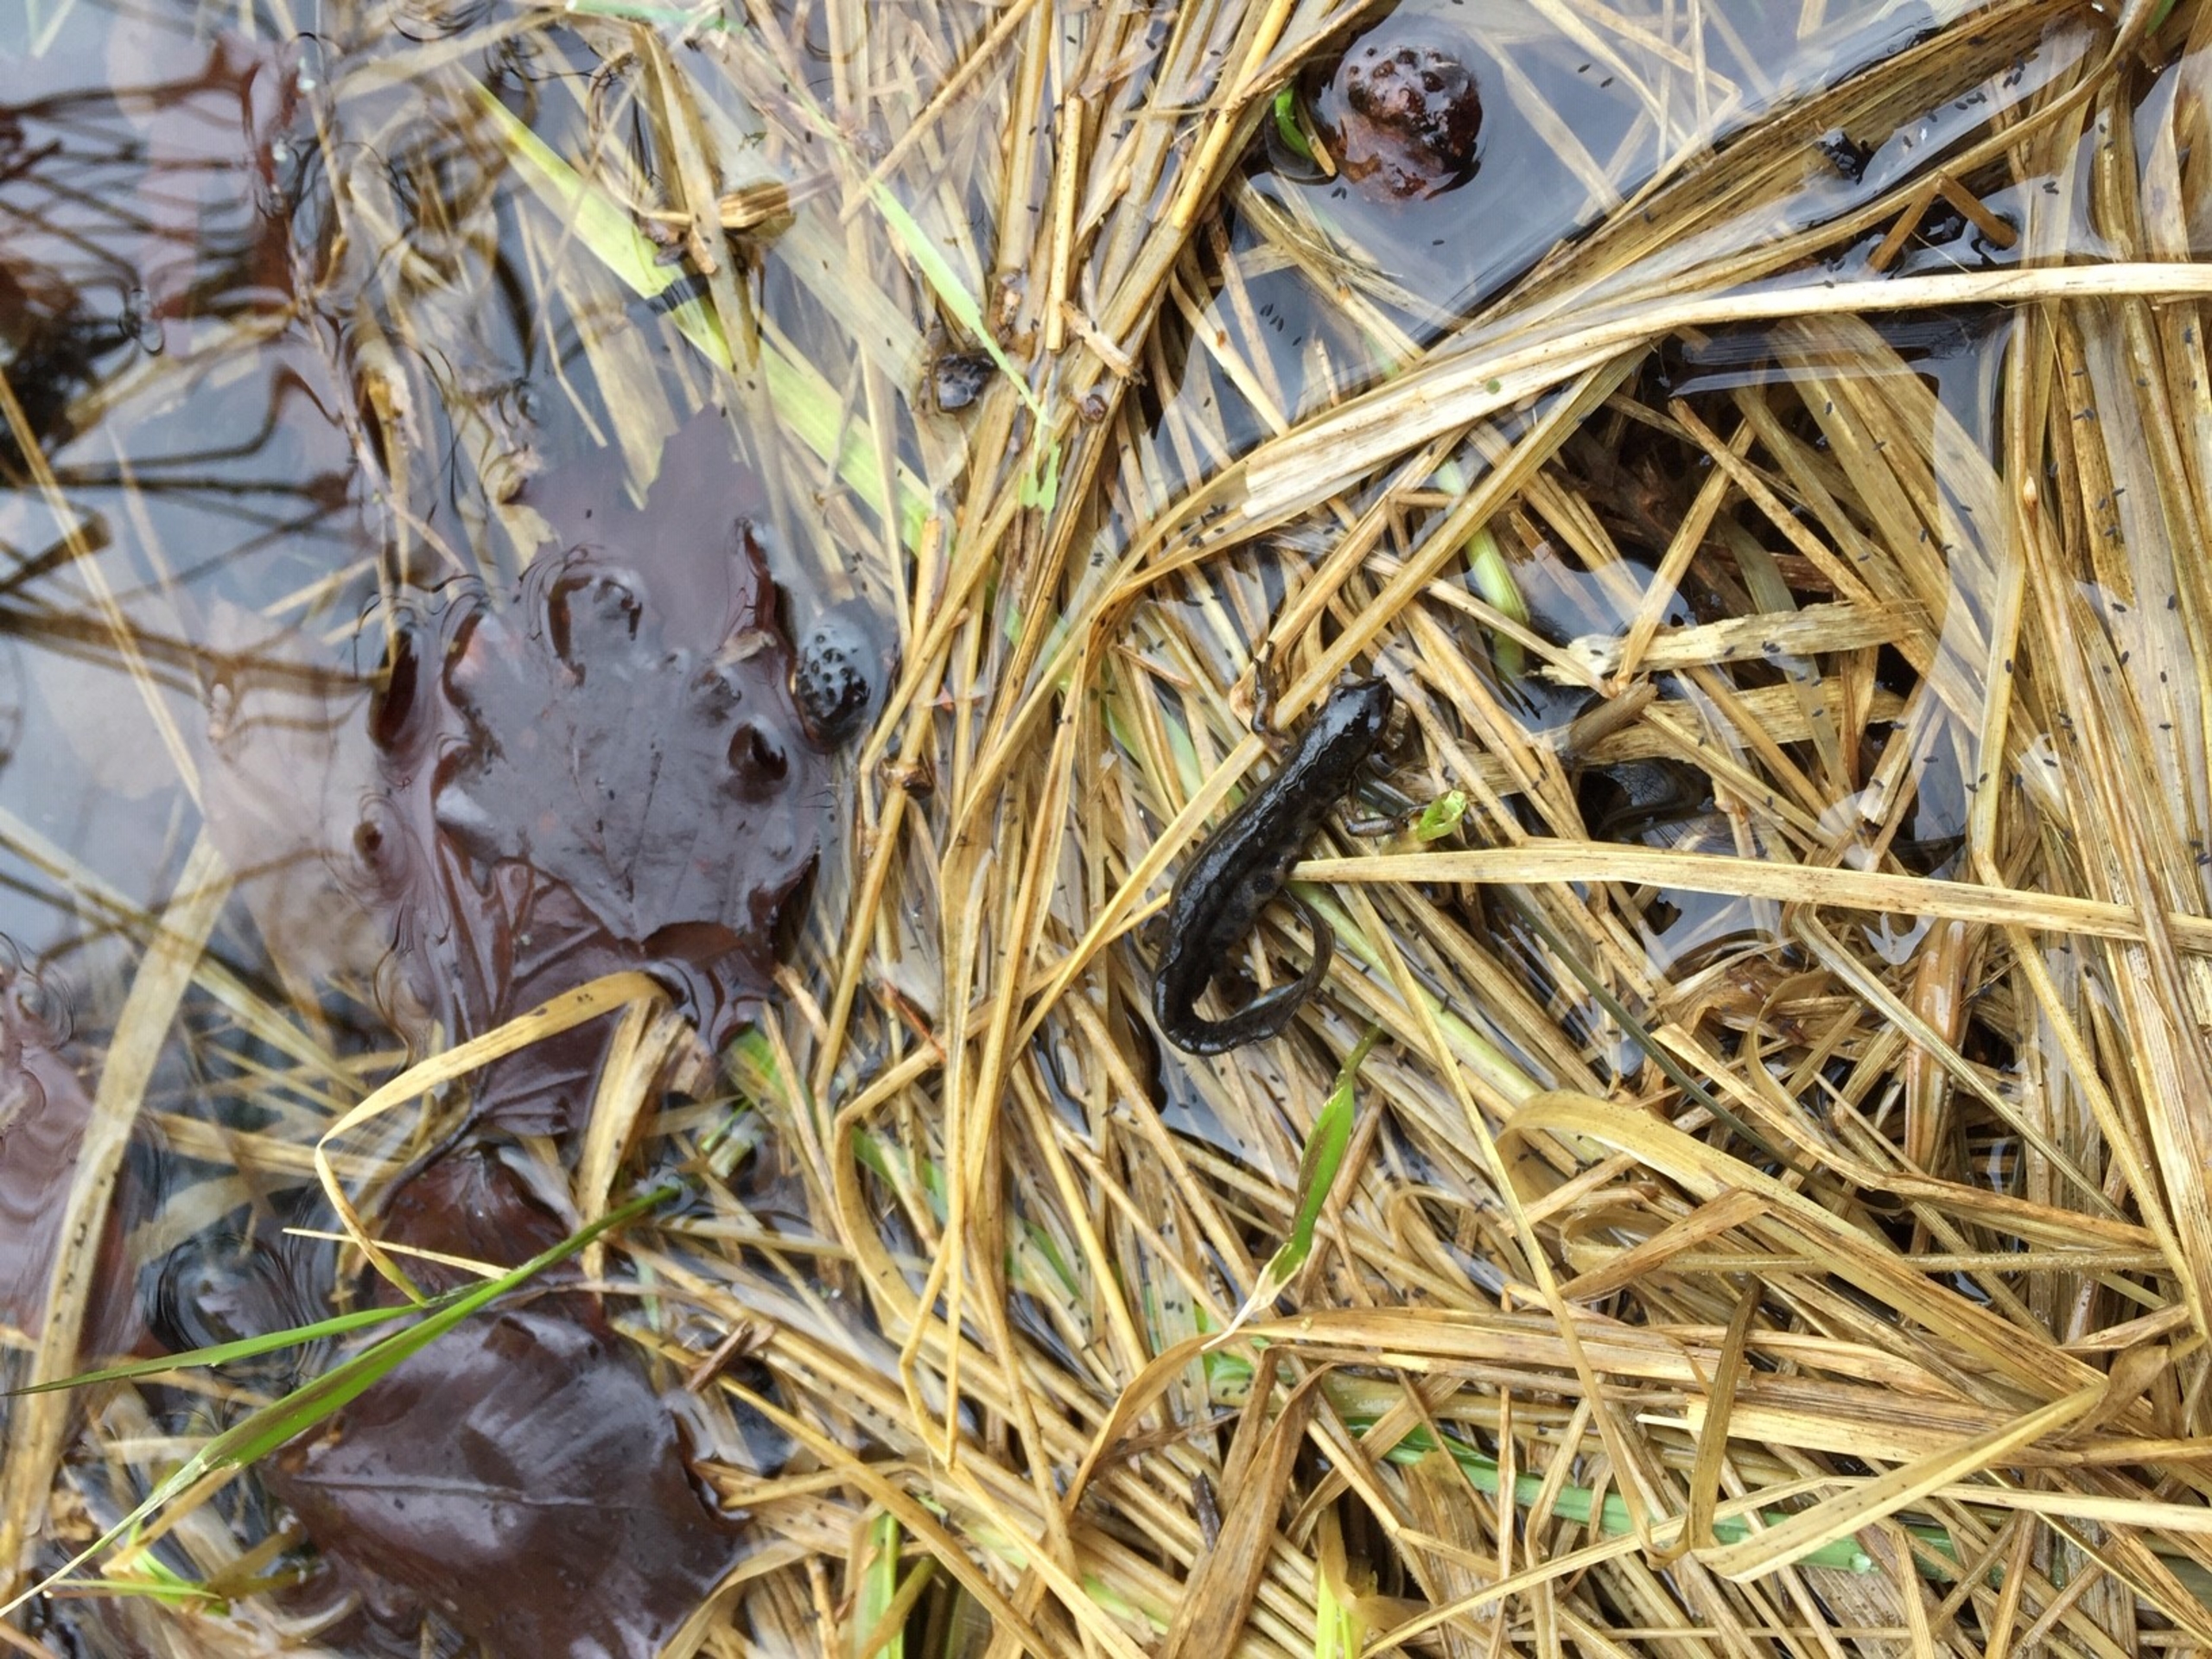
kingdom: Animalia
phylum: Chordata
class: Amphibia
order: Caudata
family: Salamandridae
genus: Lissotriton
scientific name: Lissotriton vulgaris
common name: Lille vandsalamander
